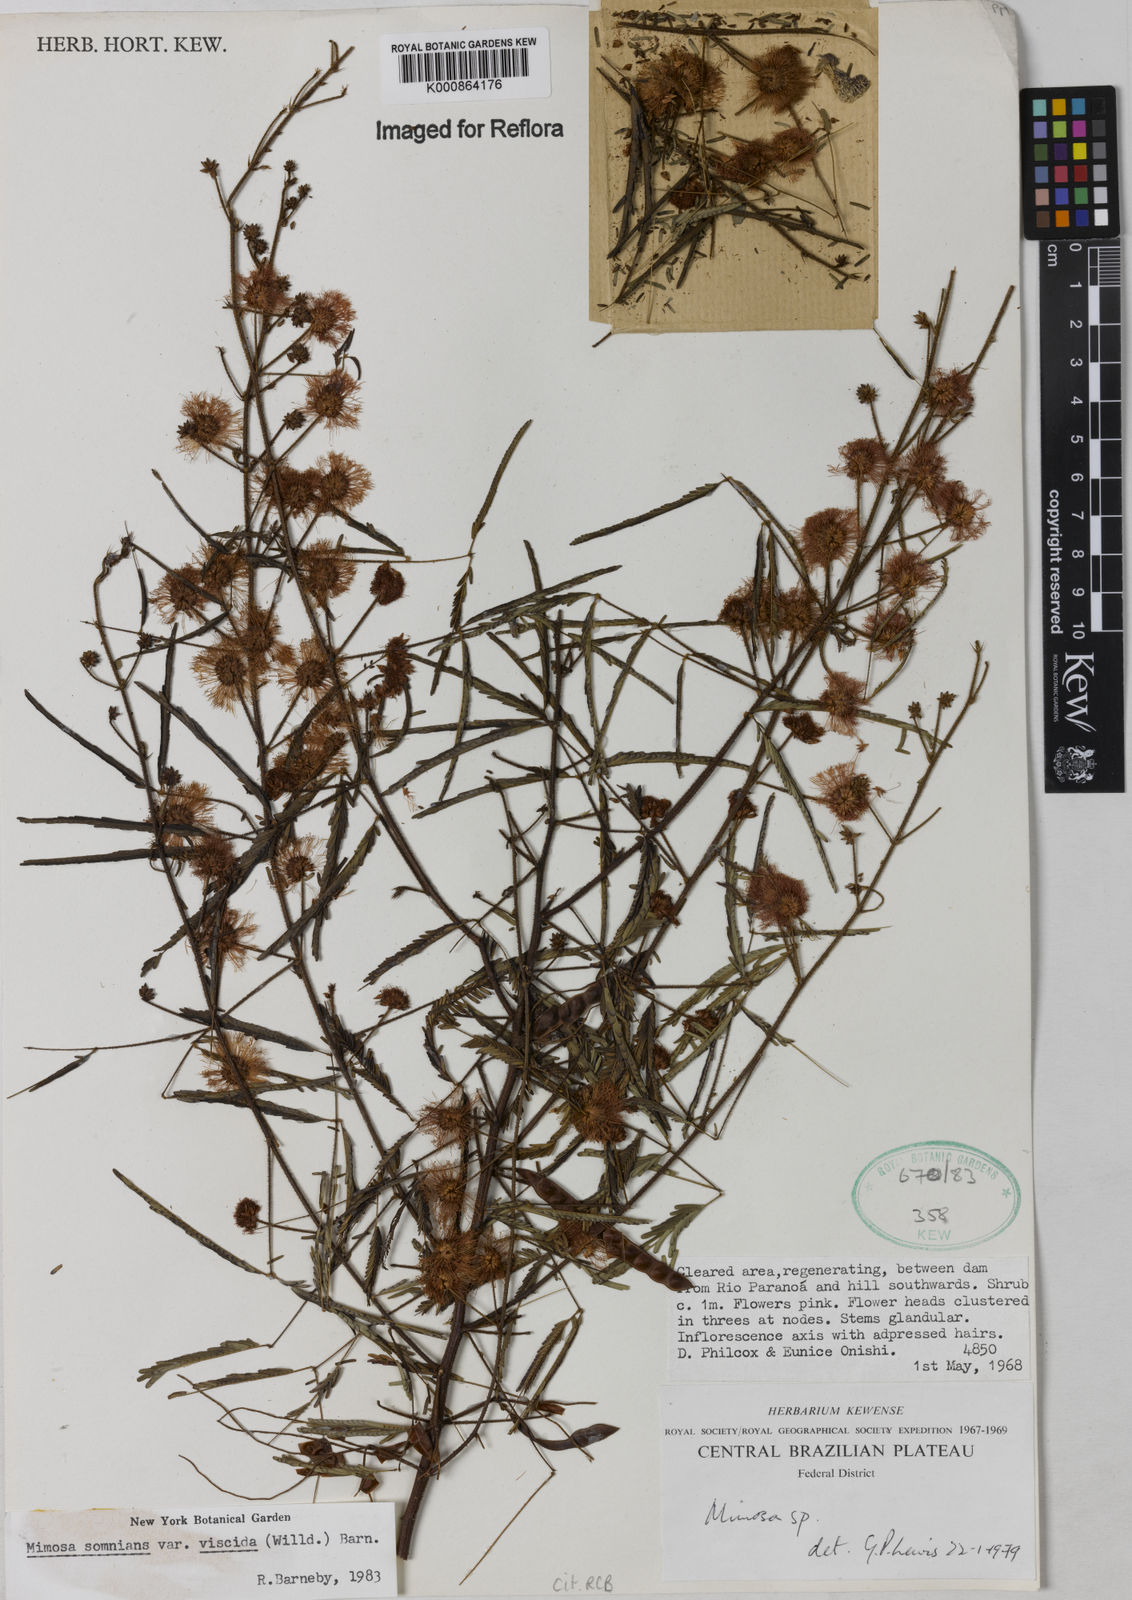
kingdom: Plantae
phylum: Tracheophyta
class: Magnoliopsida
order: Fabales
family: Fabaceae
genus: Mimosa
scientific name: Mimosa somnians
